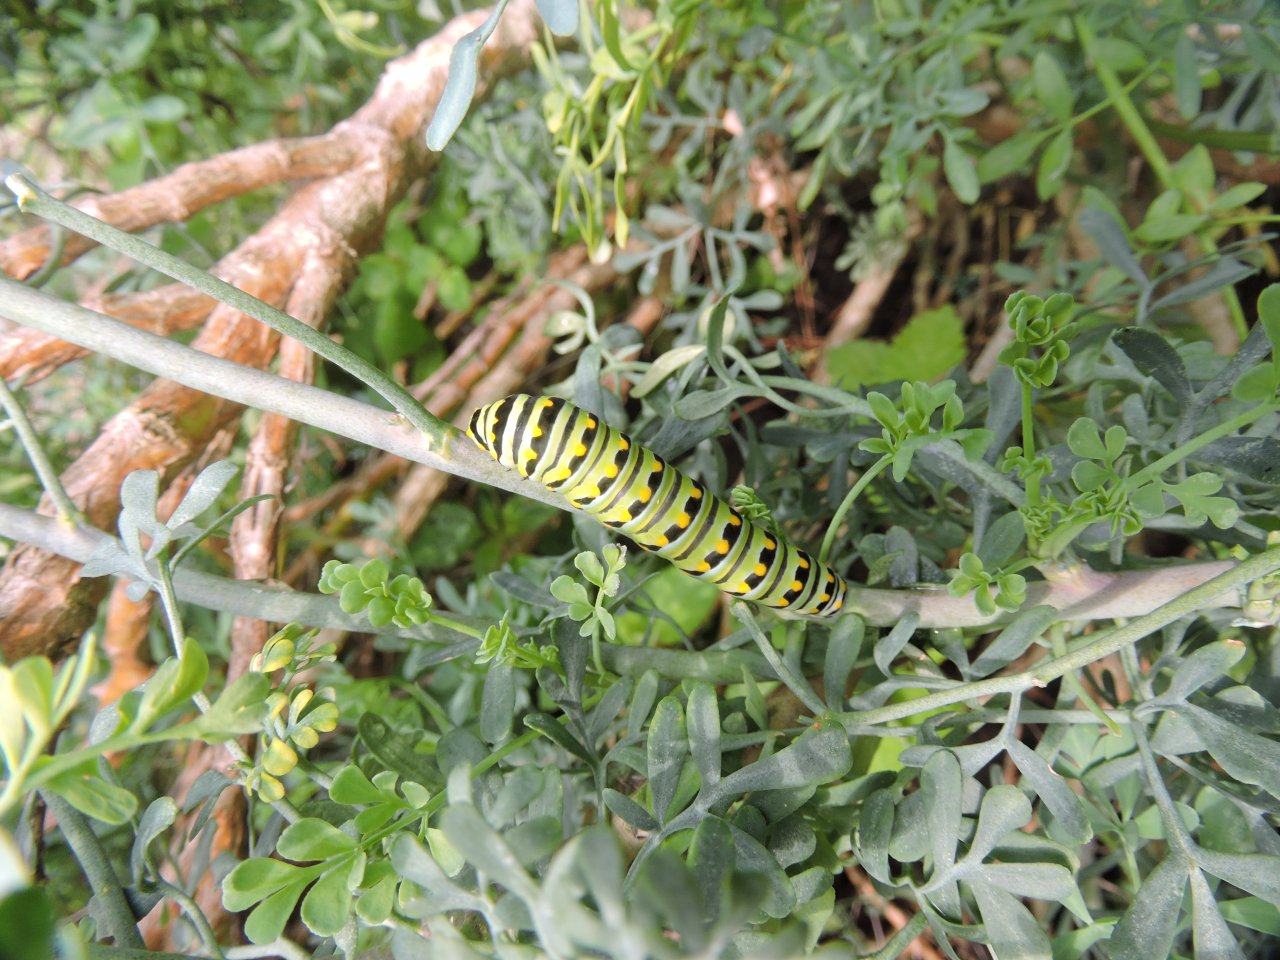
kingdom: Animalia
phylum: Arthropoda
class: Insecta
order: Lepidoptera
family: Papilionidae
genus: Papilio
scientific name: Papilio polyxenes
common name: Black Swallowtail
